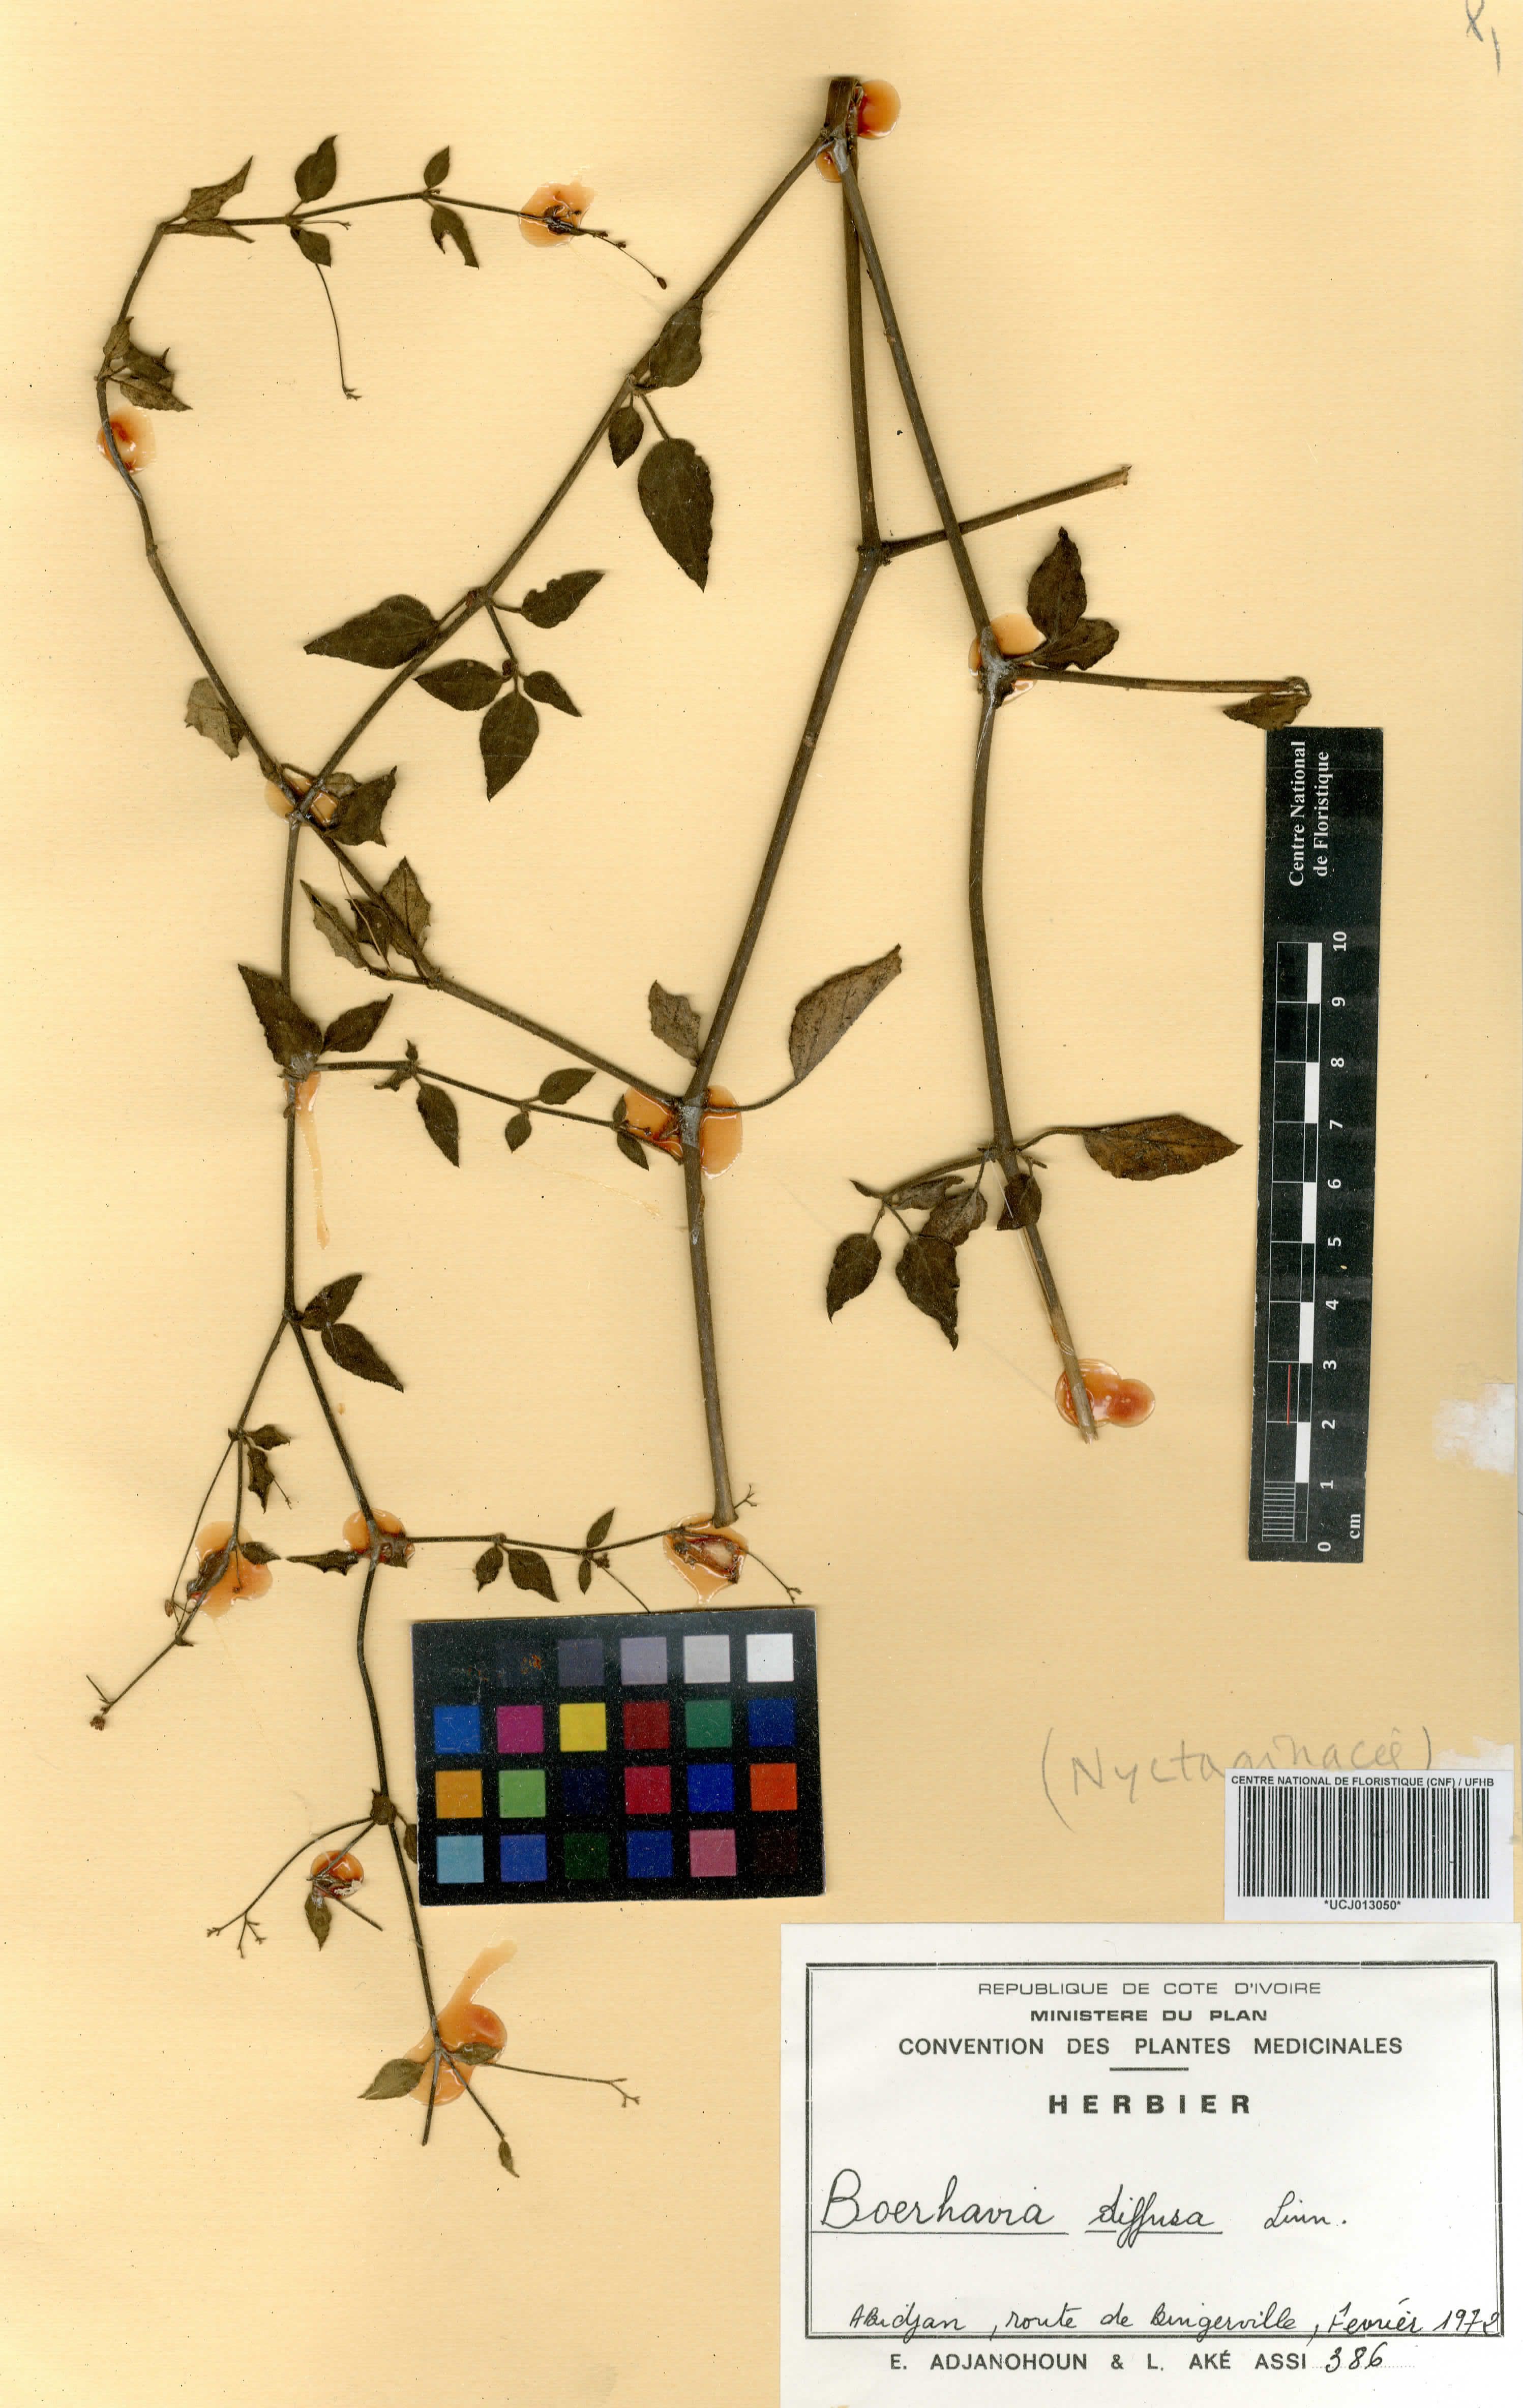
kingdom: Plantae
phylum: Tracheophyta
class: Magnoliopsida
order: Caryophyllales
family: Nyctaginaceae
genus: Boerhavia
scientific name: Boerhavia diffusa
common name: Red spiderling
